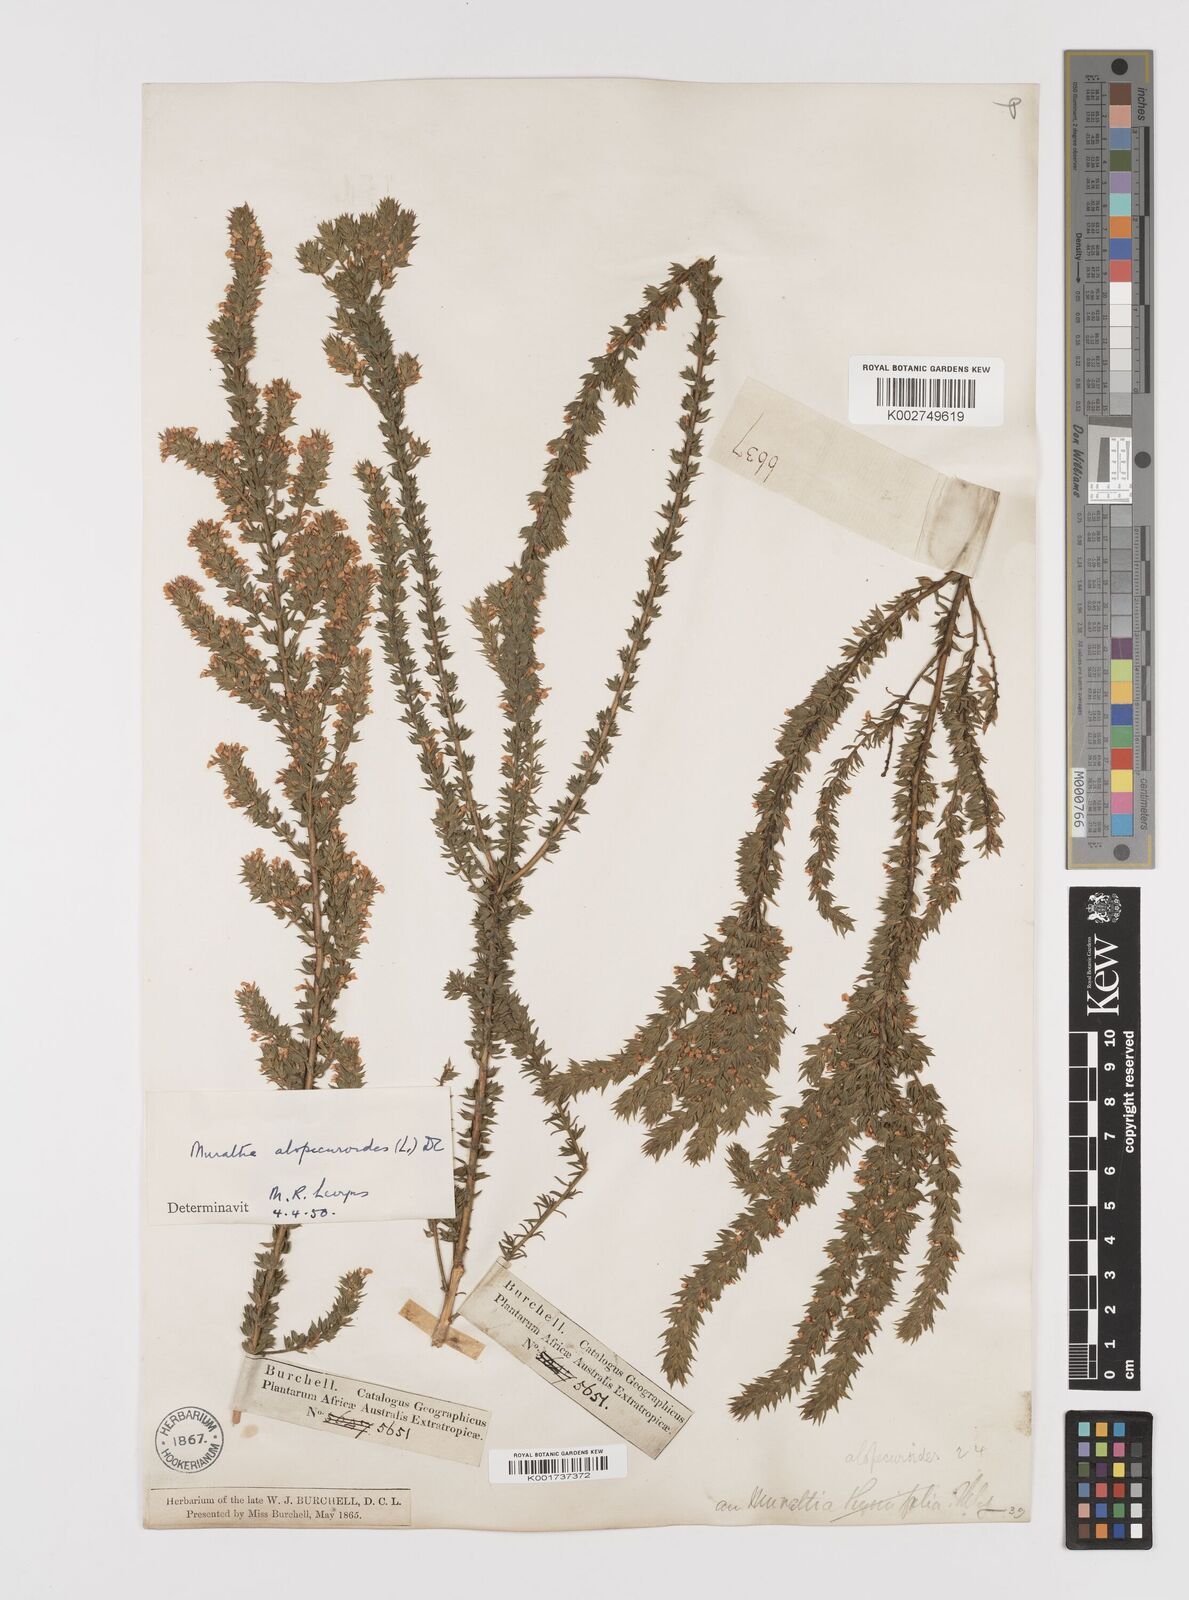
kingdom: Plantae
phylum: Tracheophyta
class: Magnoliopsida
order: Fabales
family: Polygalaceae
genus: Muraltia
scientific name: Muraltia alopecuroides
